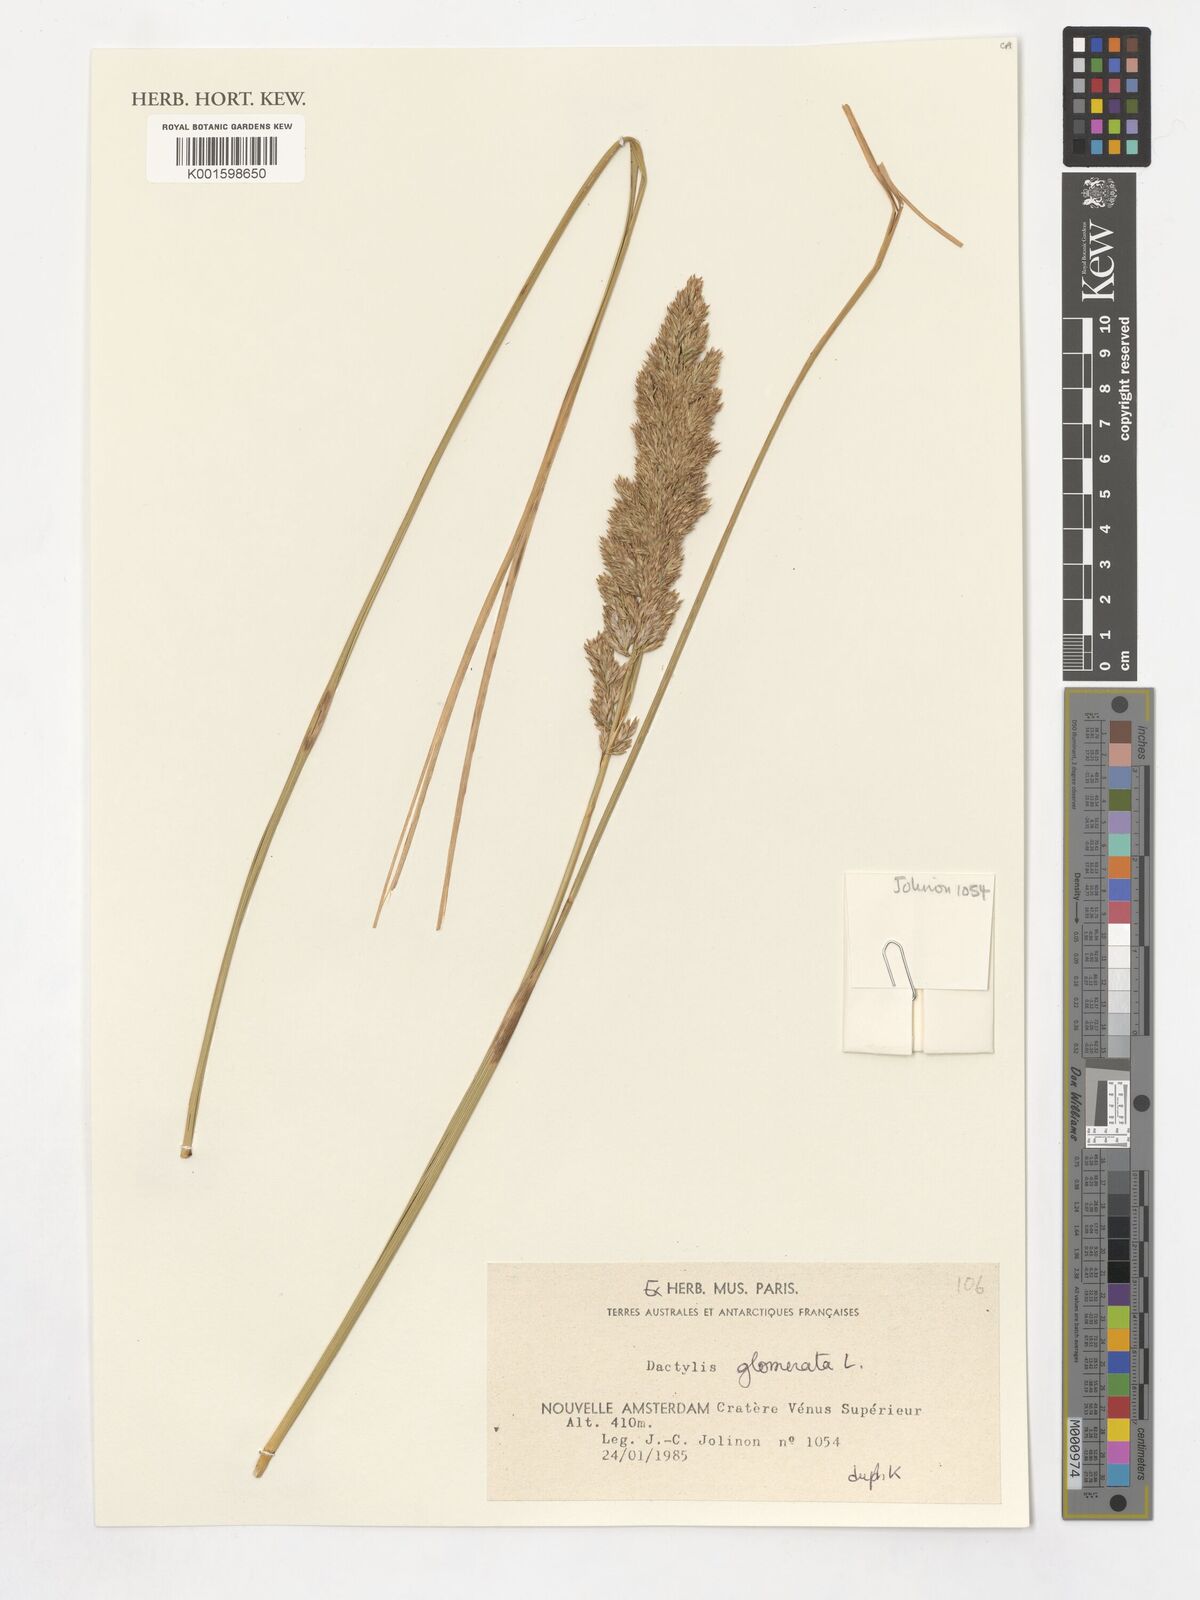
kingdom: Plantae
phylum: Tracheophyta
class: Liliopsida
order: Poales
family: Poaceae
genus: Dactylis
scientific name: Dactylis glomerata
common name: Orchardgrass
